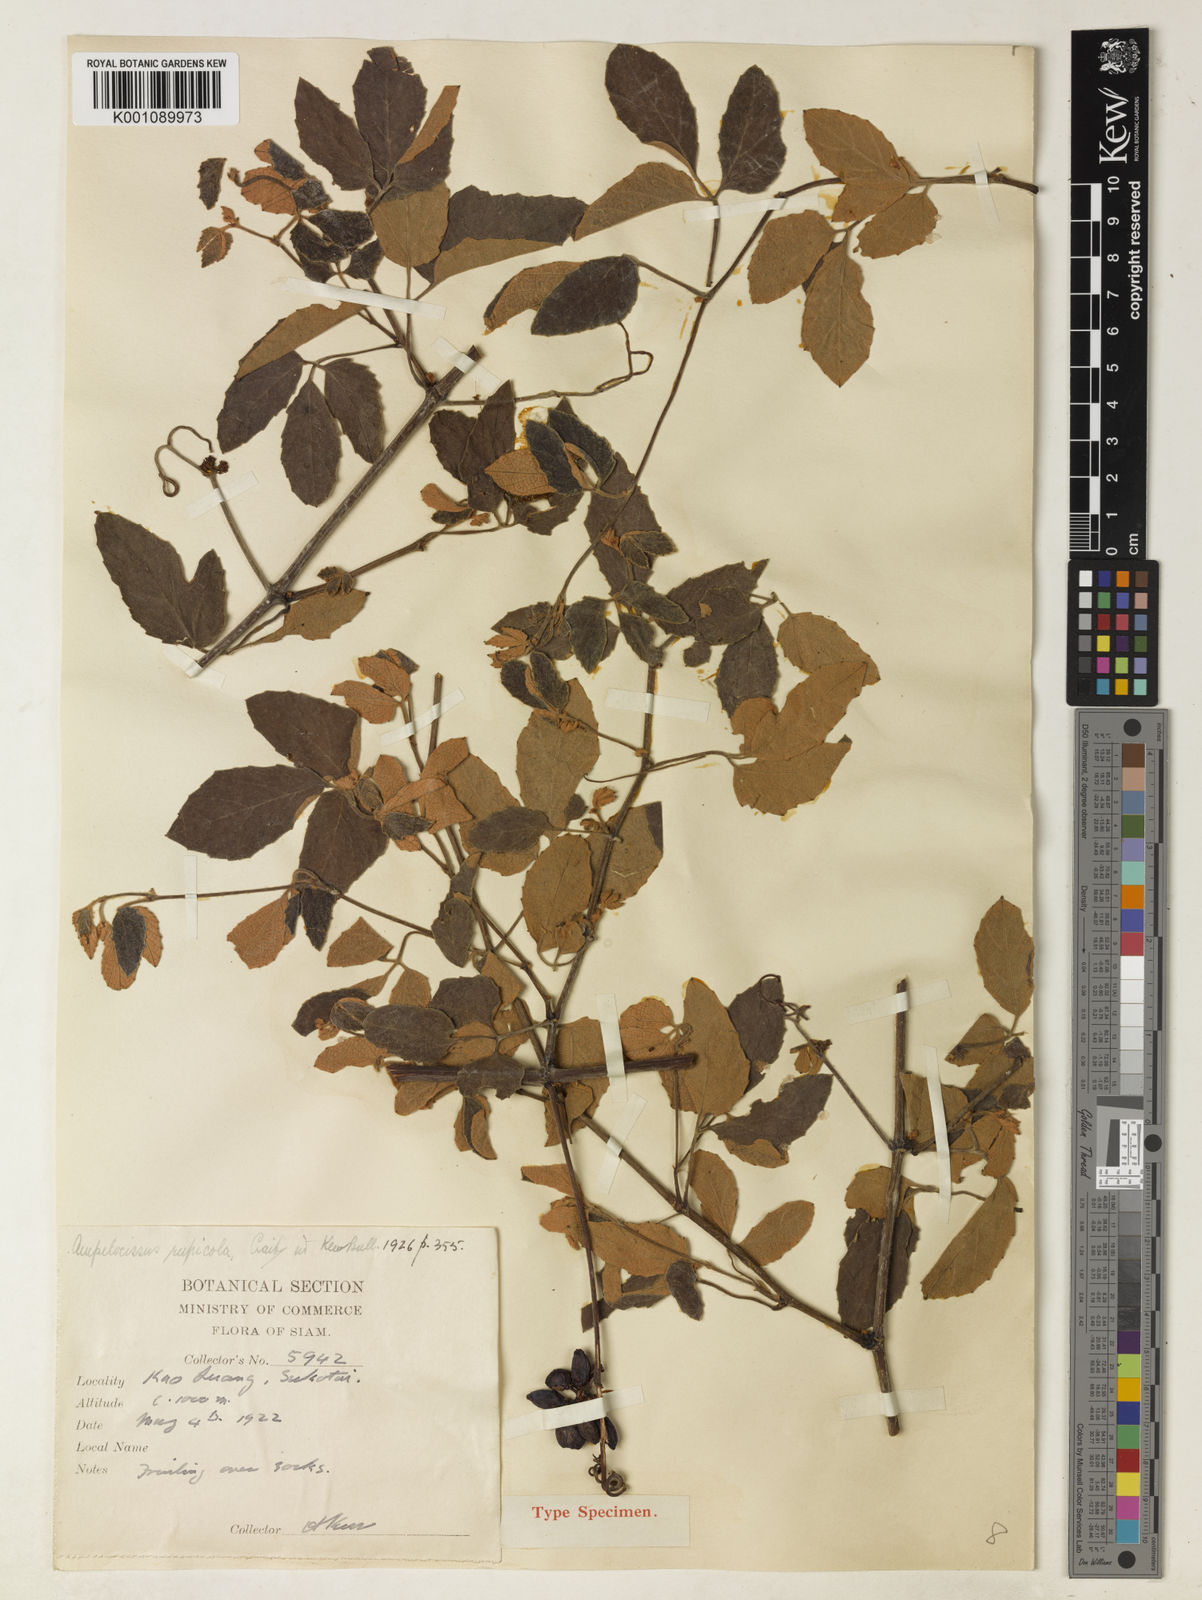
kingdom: Plantae
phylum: Tracheophyta
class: Magnoliopsida
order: Vitales
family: Vitaceae
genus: Ampelocissus
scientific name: Ampelocissus divaricata
